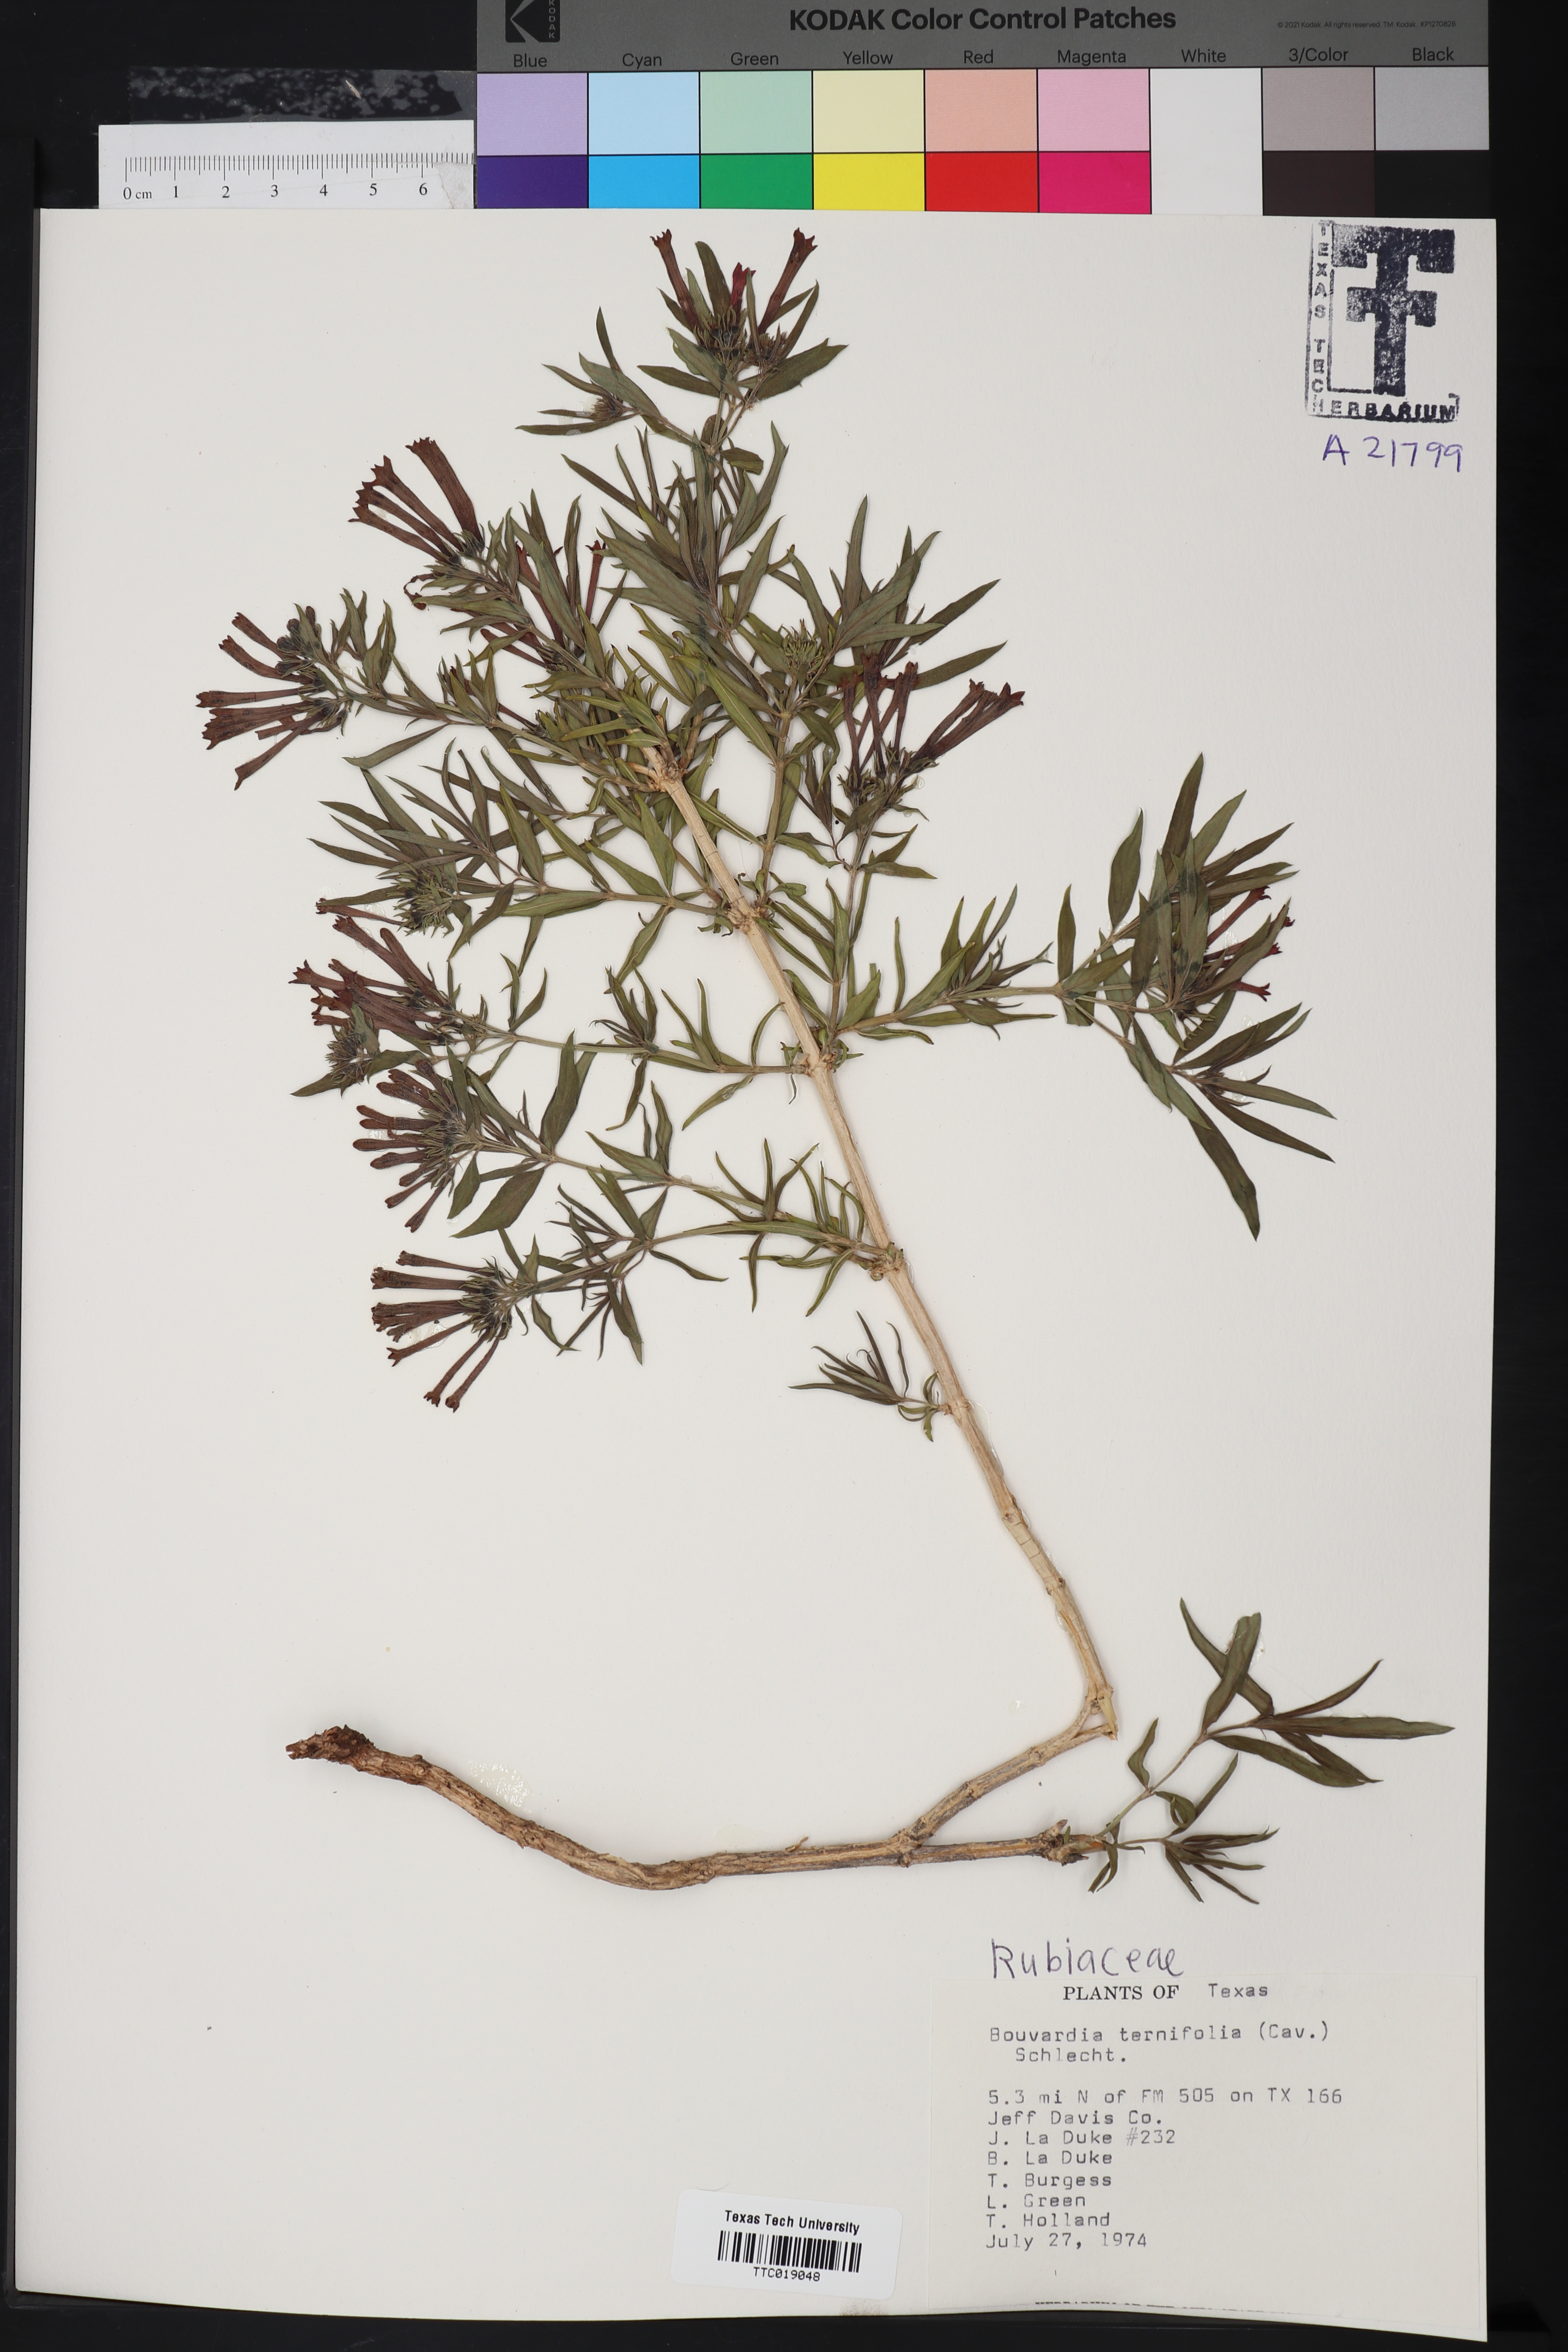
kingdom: Plantae
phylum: Tracheophyta
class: Magnoliopsida
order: Gentianales
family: Rubiaceae
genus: Bouvardia
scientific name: Bouvardia ternifolia
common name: Scarlet bouvardia
